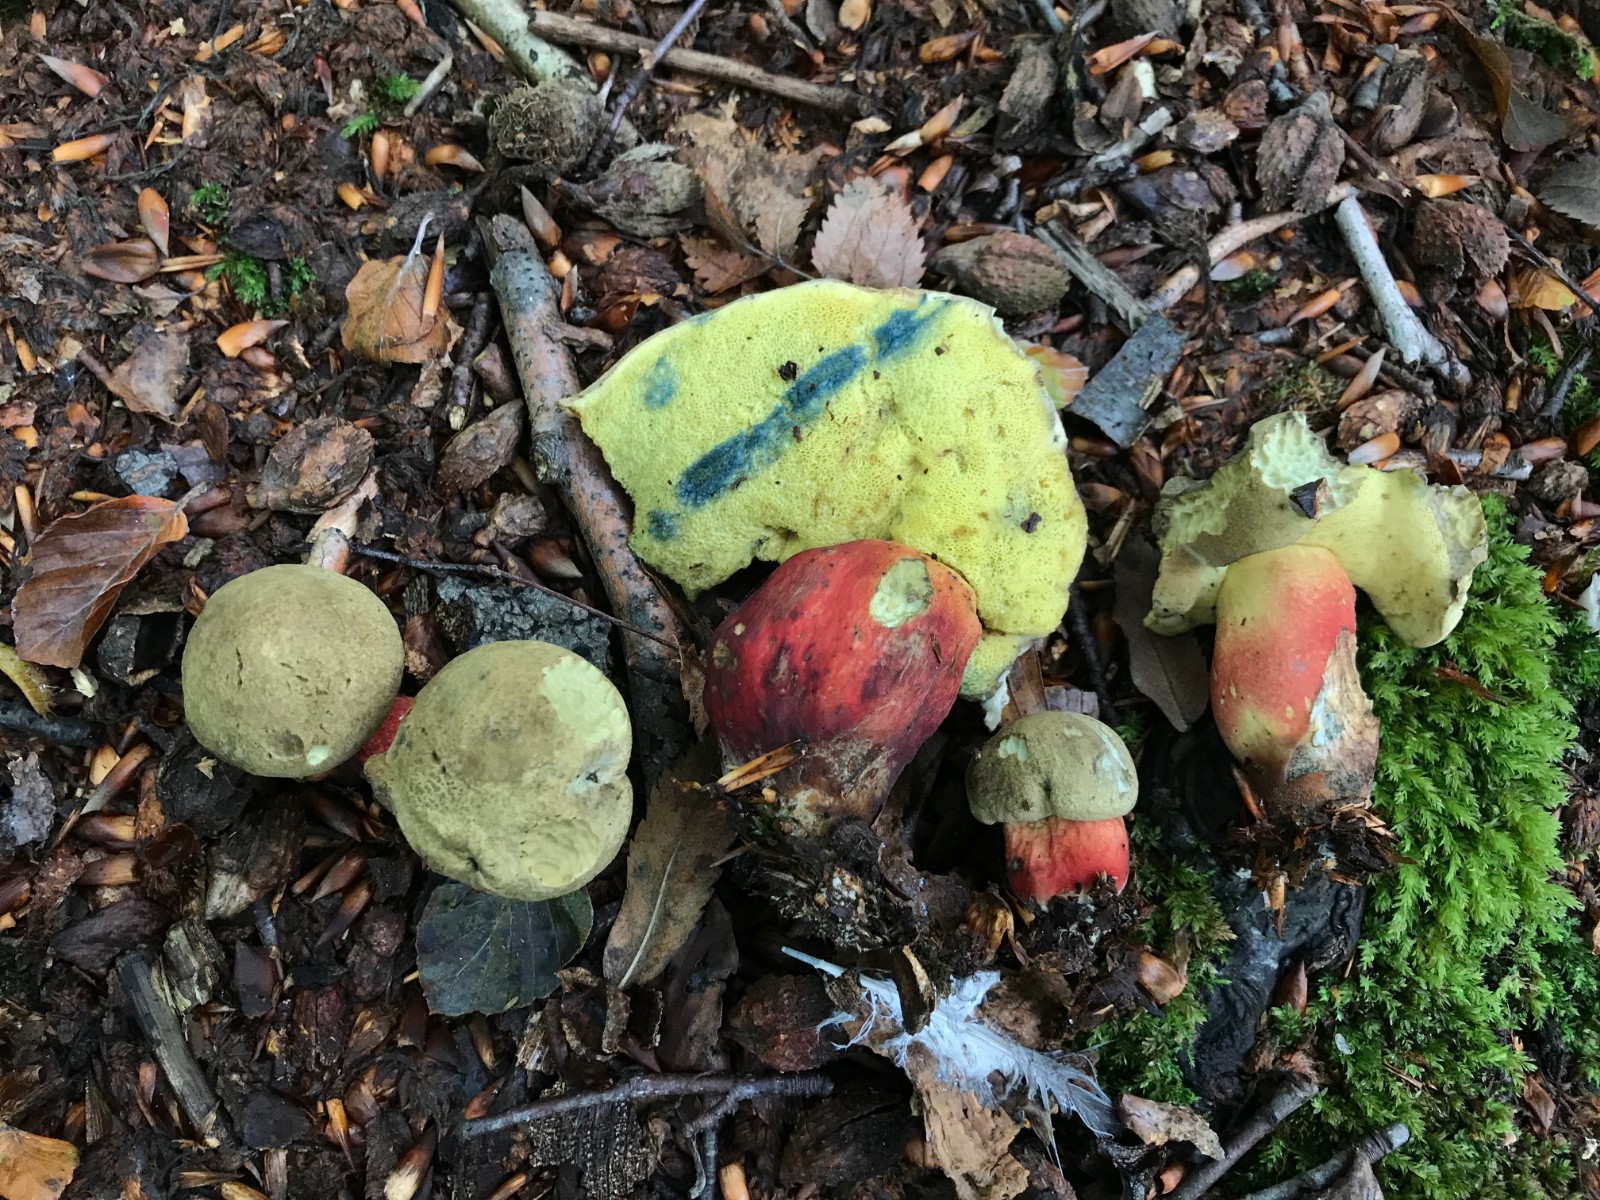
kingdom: Fungi
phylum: Basidiomycota
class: Agaricomycetes
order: Boletales
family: Boletaceae
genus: Caloboletus
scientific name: Caloboletus calopus
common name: skønfodet rørhat
